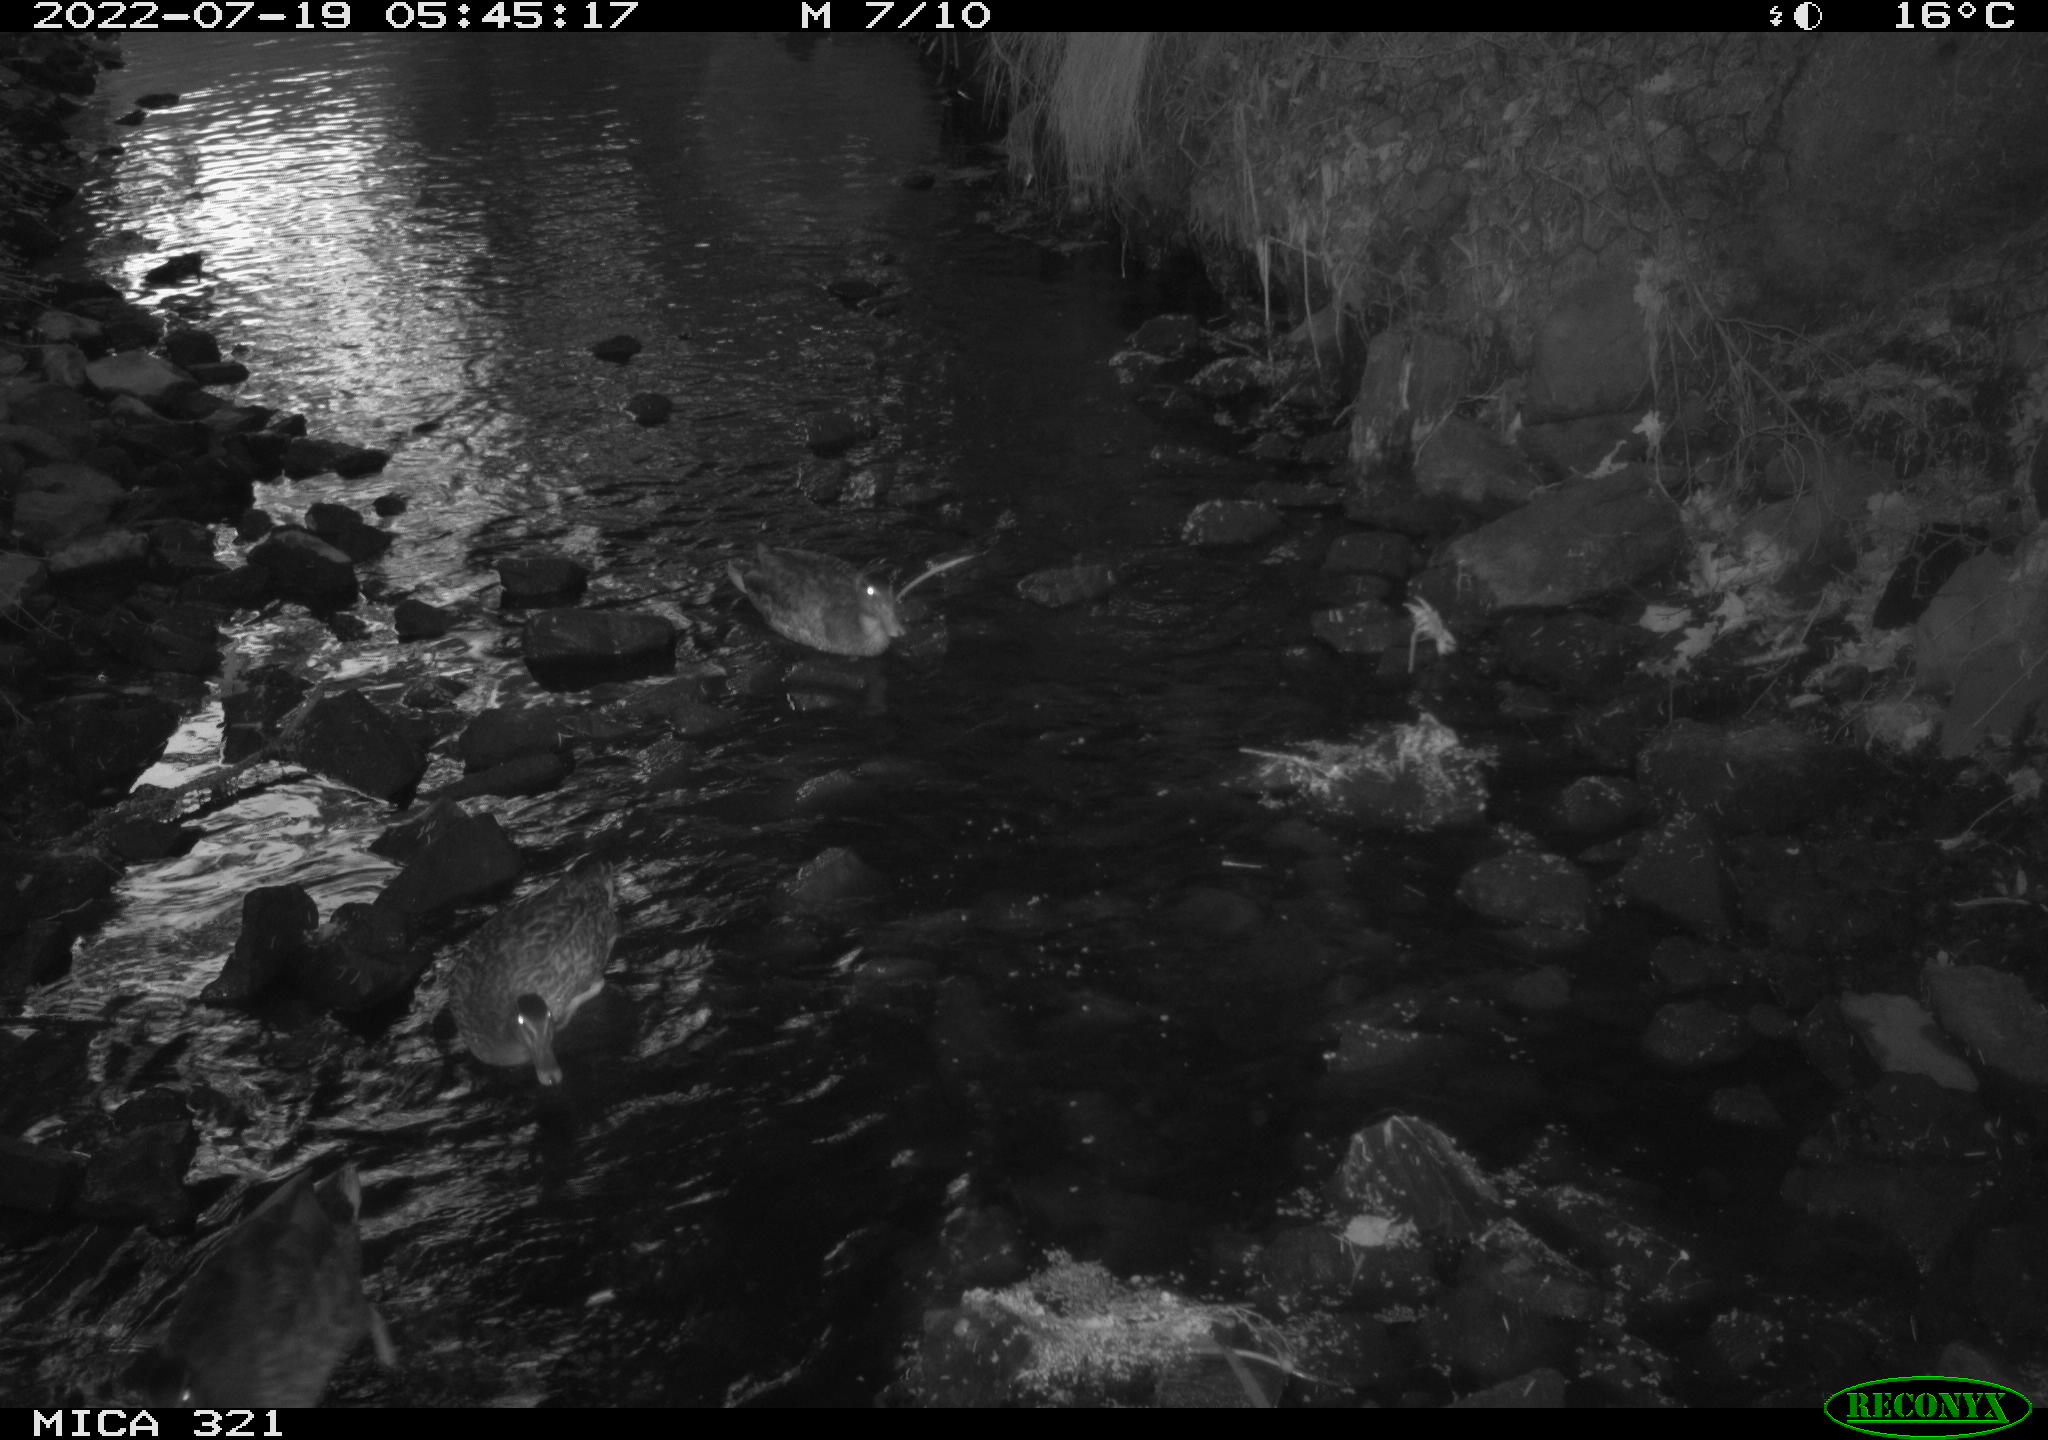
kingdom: Animalia
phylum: Chordata
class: Aves
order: Anseriformes
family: Anatidae
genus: Anas
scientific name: Anas platyrhynchos
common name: Mallard
